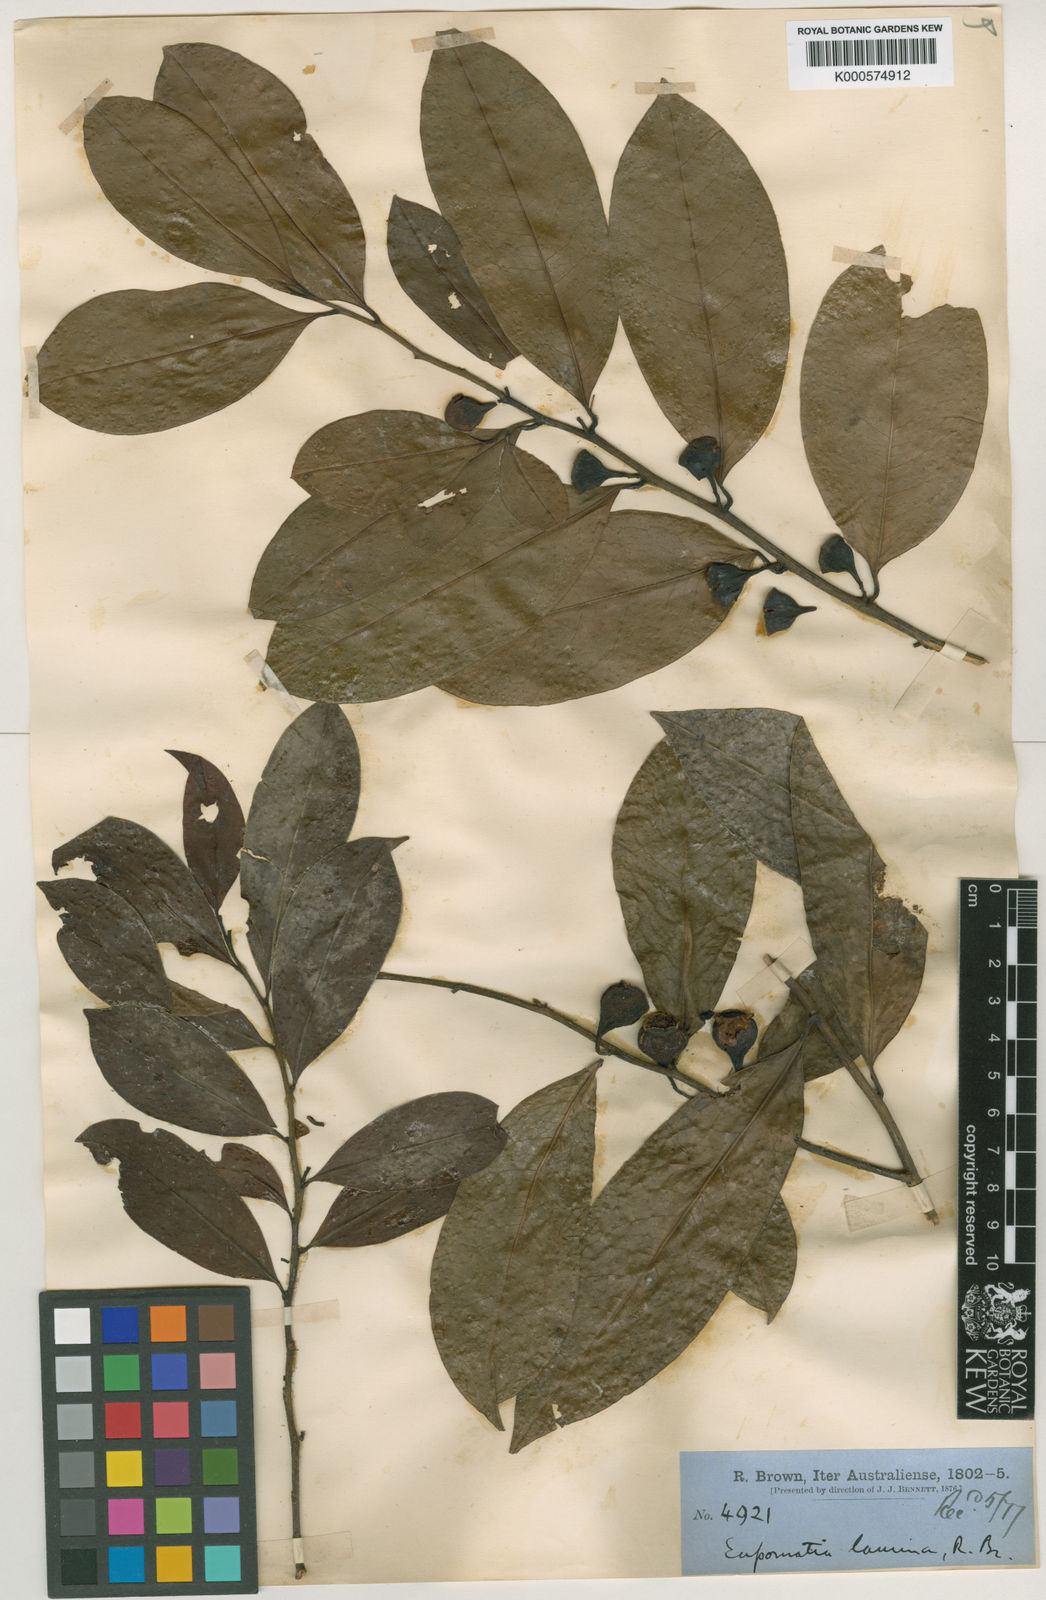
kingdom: Plantae
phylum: Tracheophyta
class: Magnoliopsida
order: Magnoliales
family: Eupomatiaceae
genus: Eupomatia
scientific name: Eupomatia laurina
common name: Bolwarra
